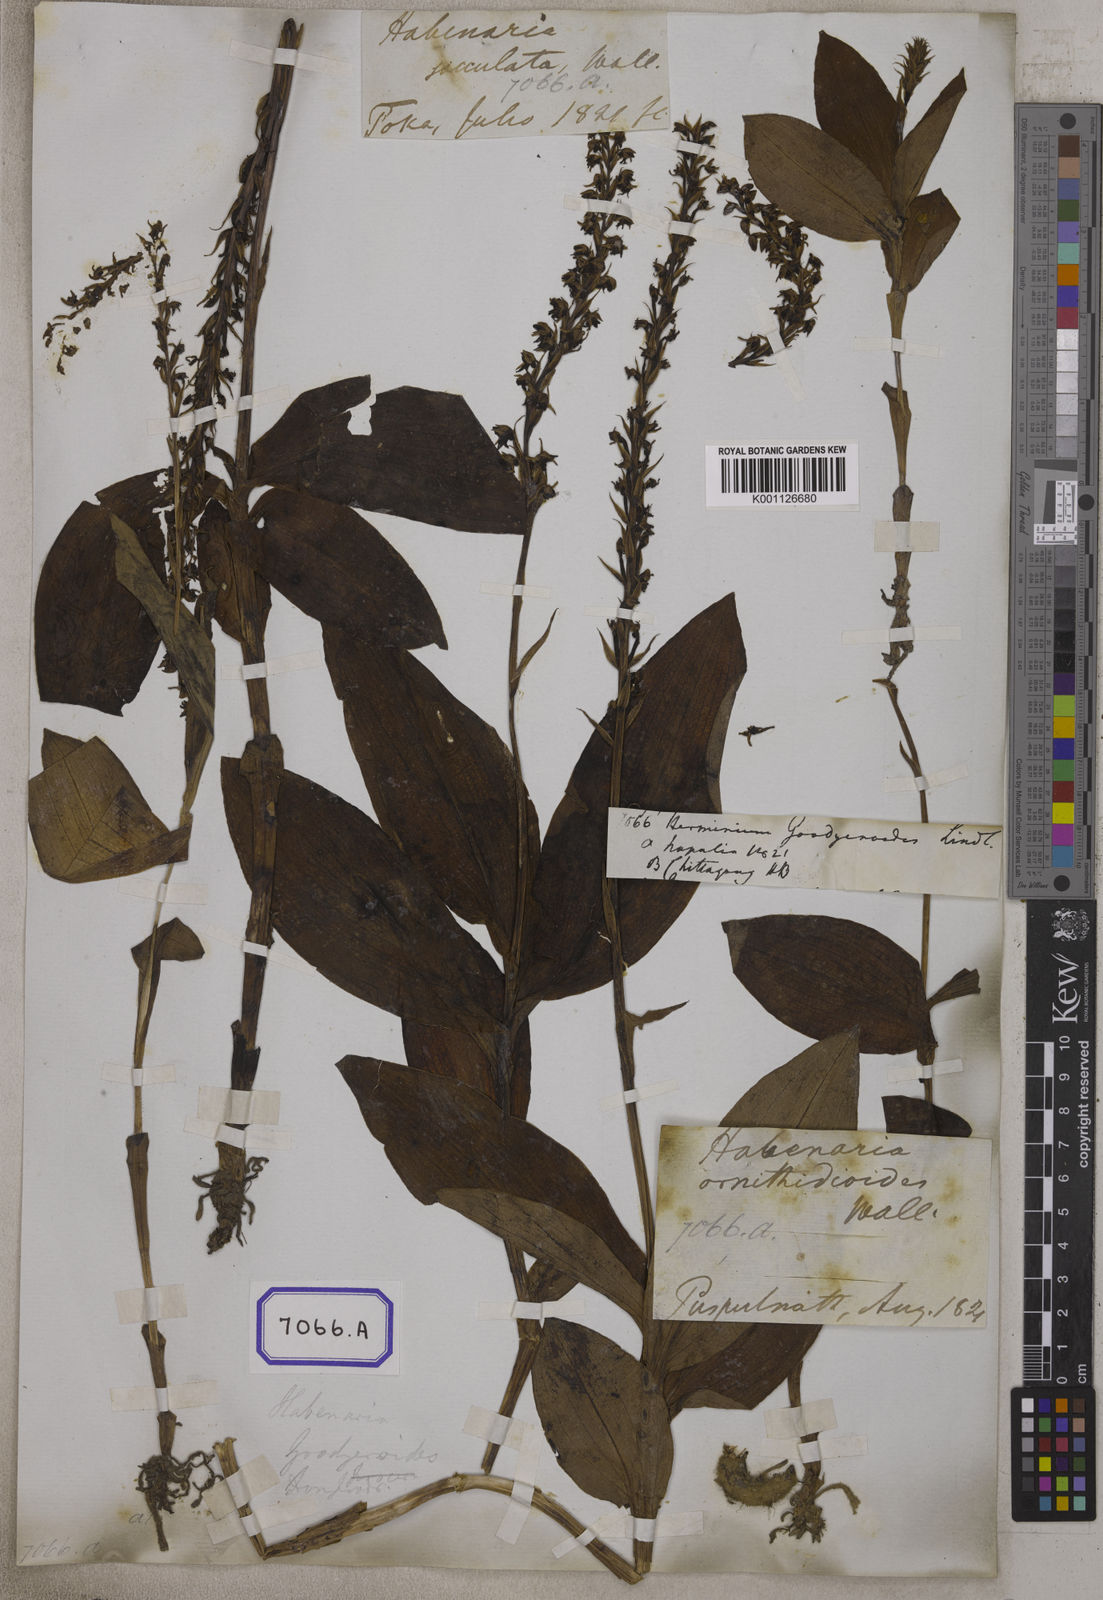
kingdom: Plantae
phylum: Tracheophyta
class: Liliopsida
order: Asparagales
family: Orchidaceae
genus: Herminium
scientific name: Herminium
